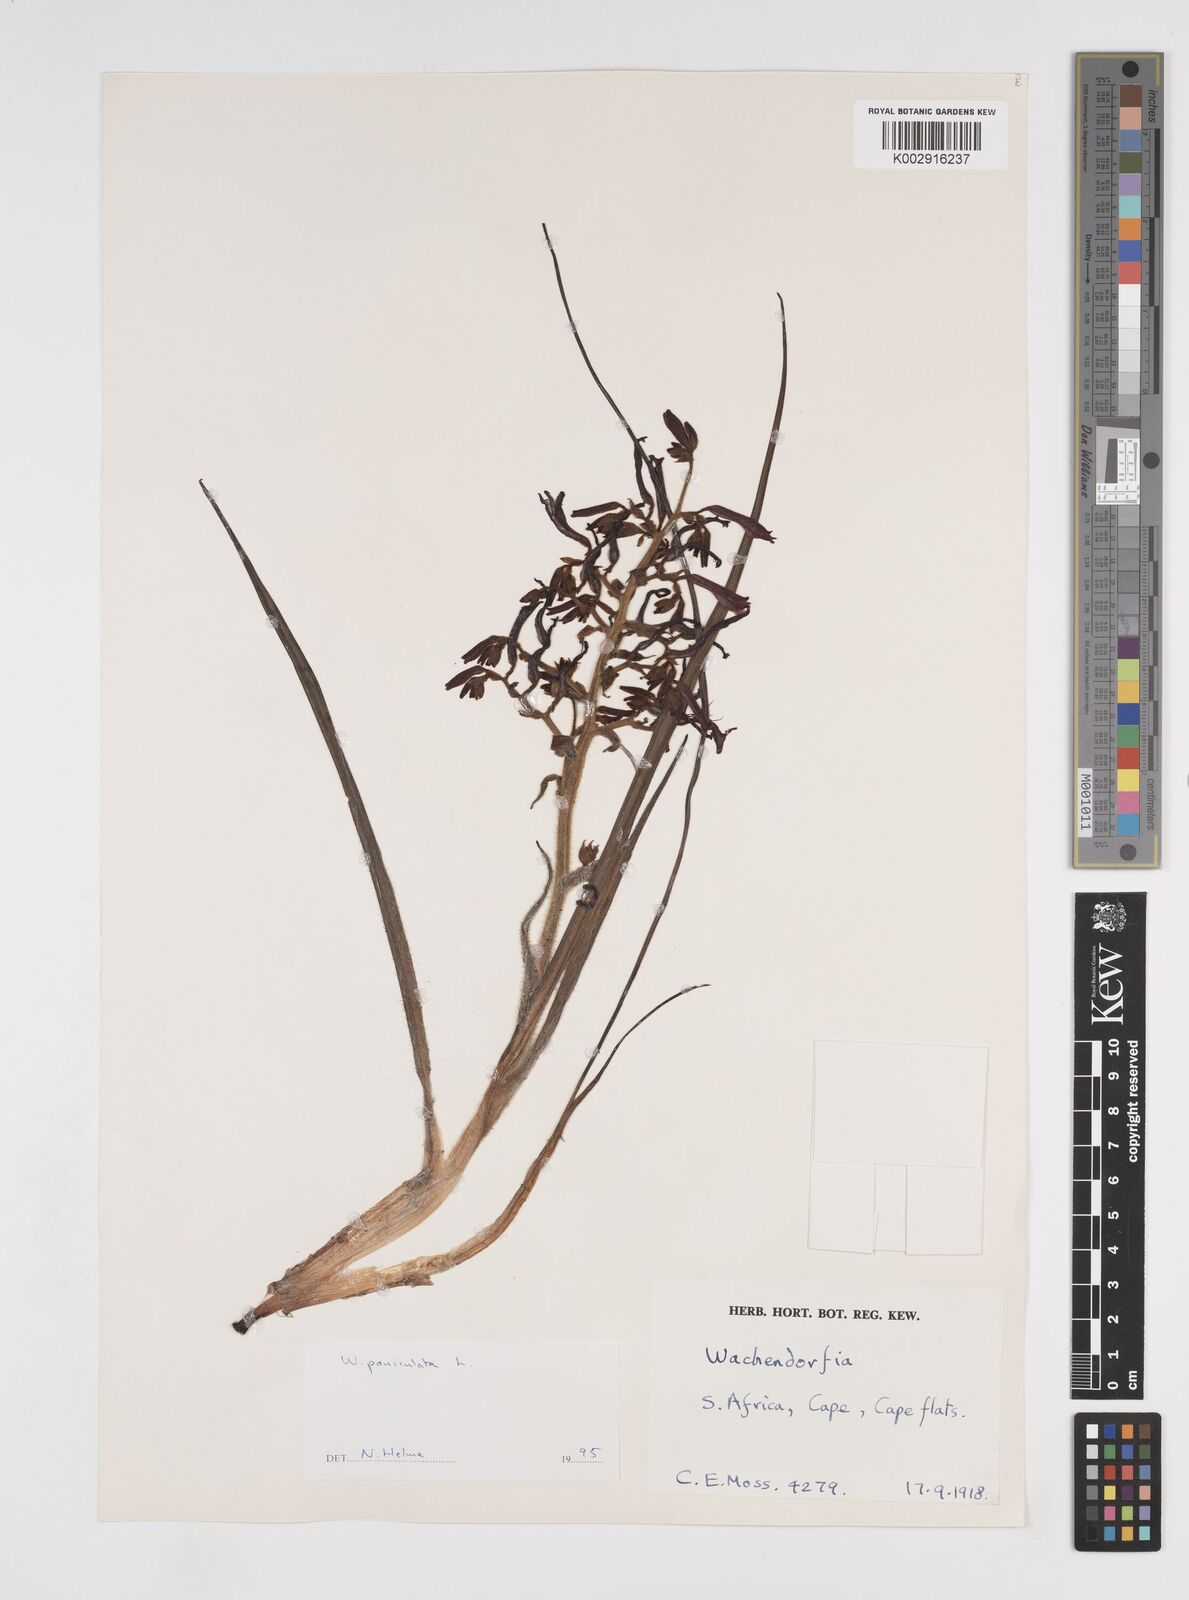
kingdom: Plantae
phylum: Tracheophyta
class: Liliopsida
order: Commelinales
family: Haemodoraceae
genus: Wachendorfia
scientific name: Wachendorfia paniculata
